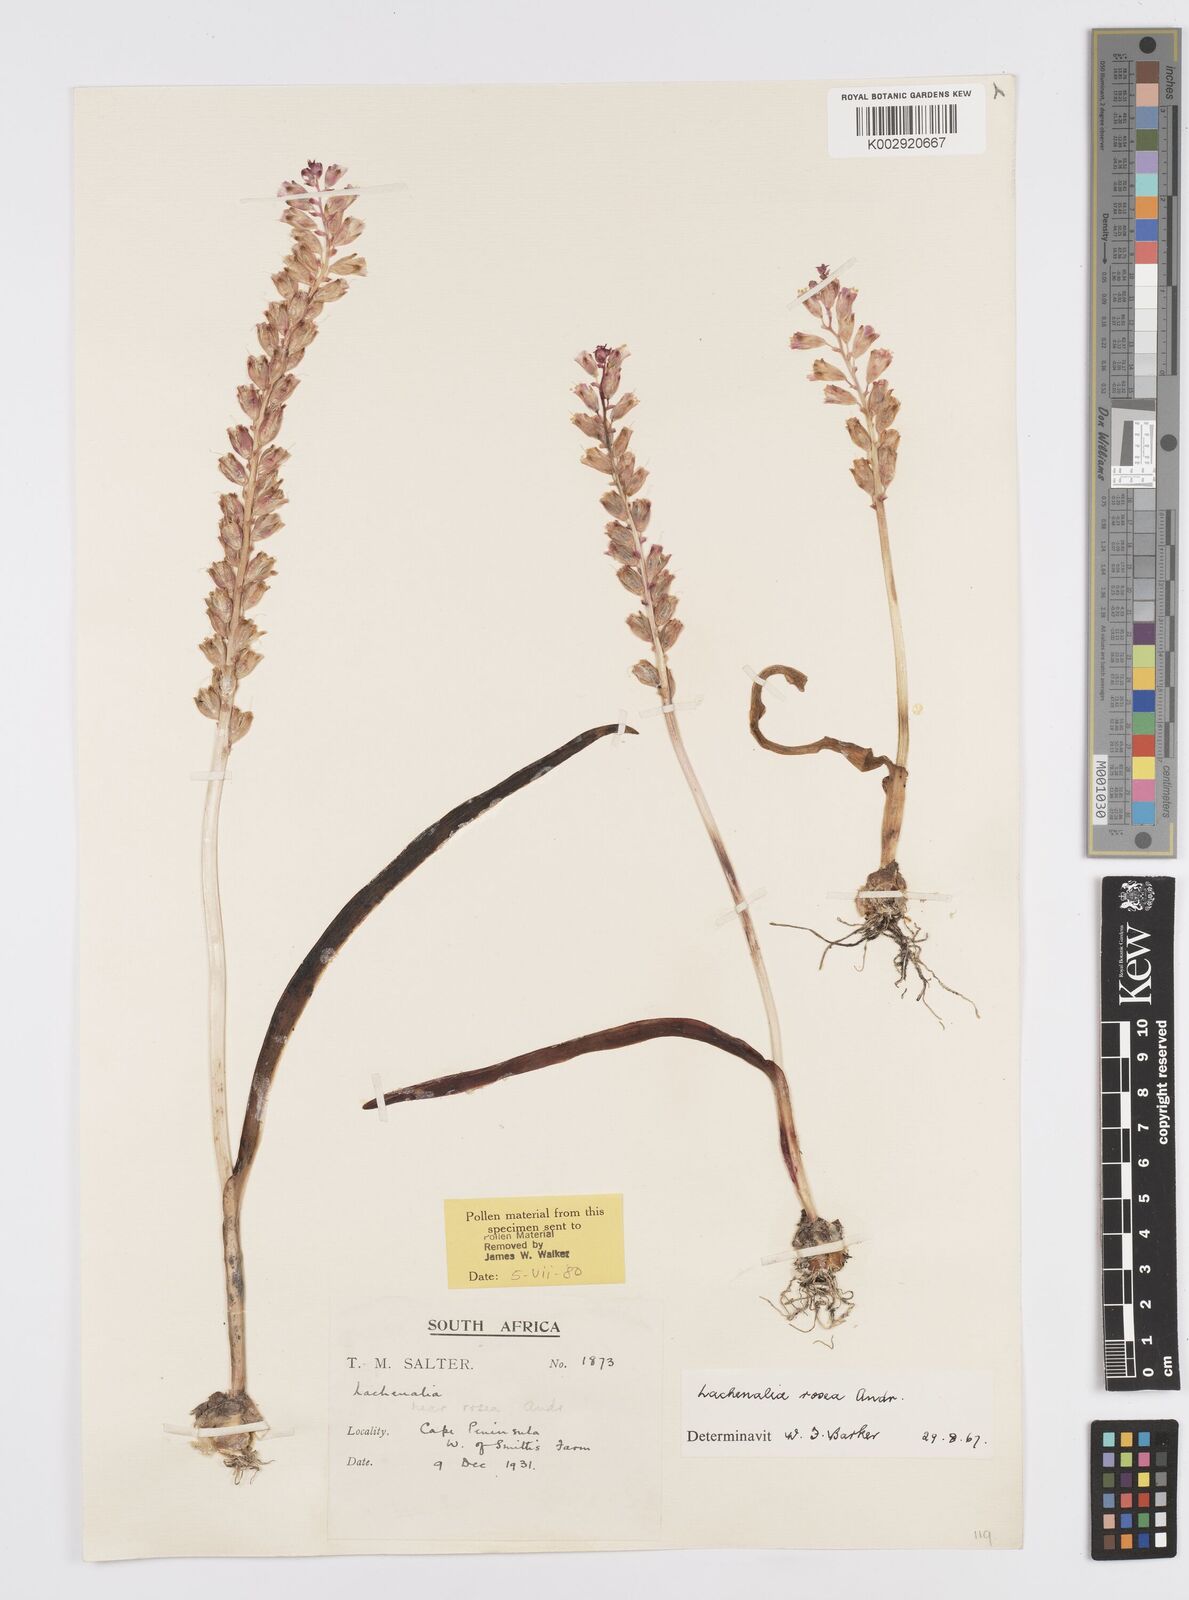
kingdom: Plantae
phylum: Tracheophyta
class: Liliopsida
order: Asparagales
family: Asparagaceae
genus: Lachenalia
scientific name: Lachenalia rosea
